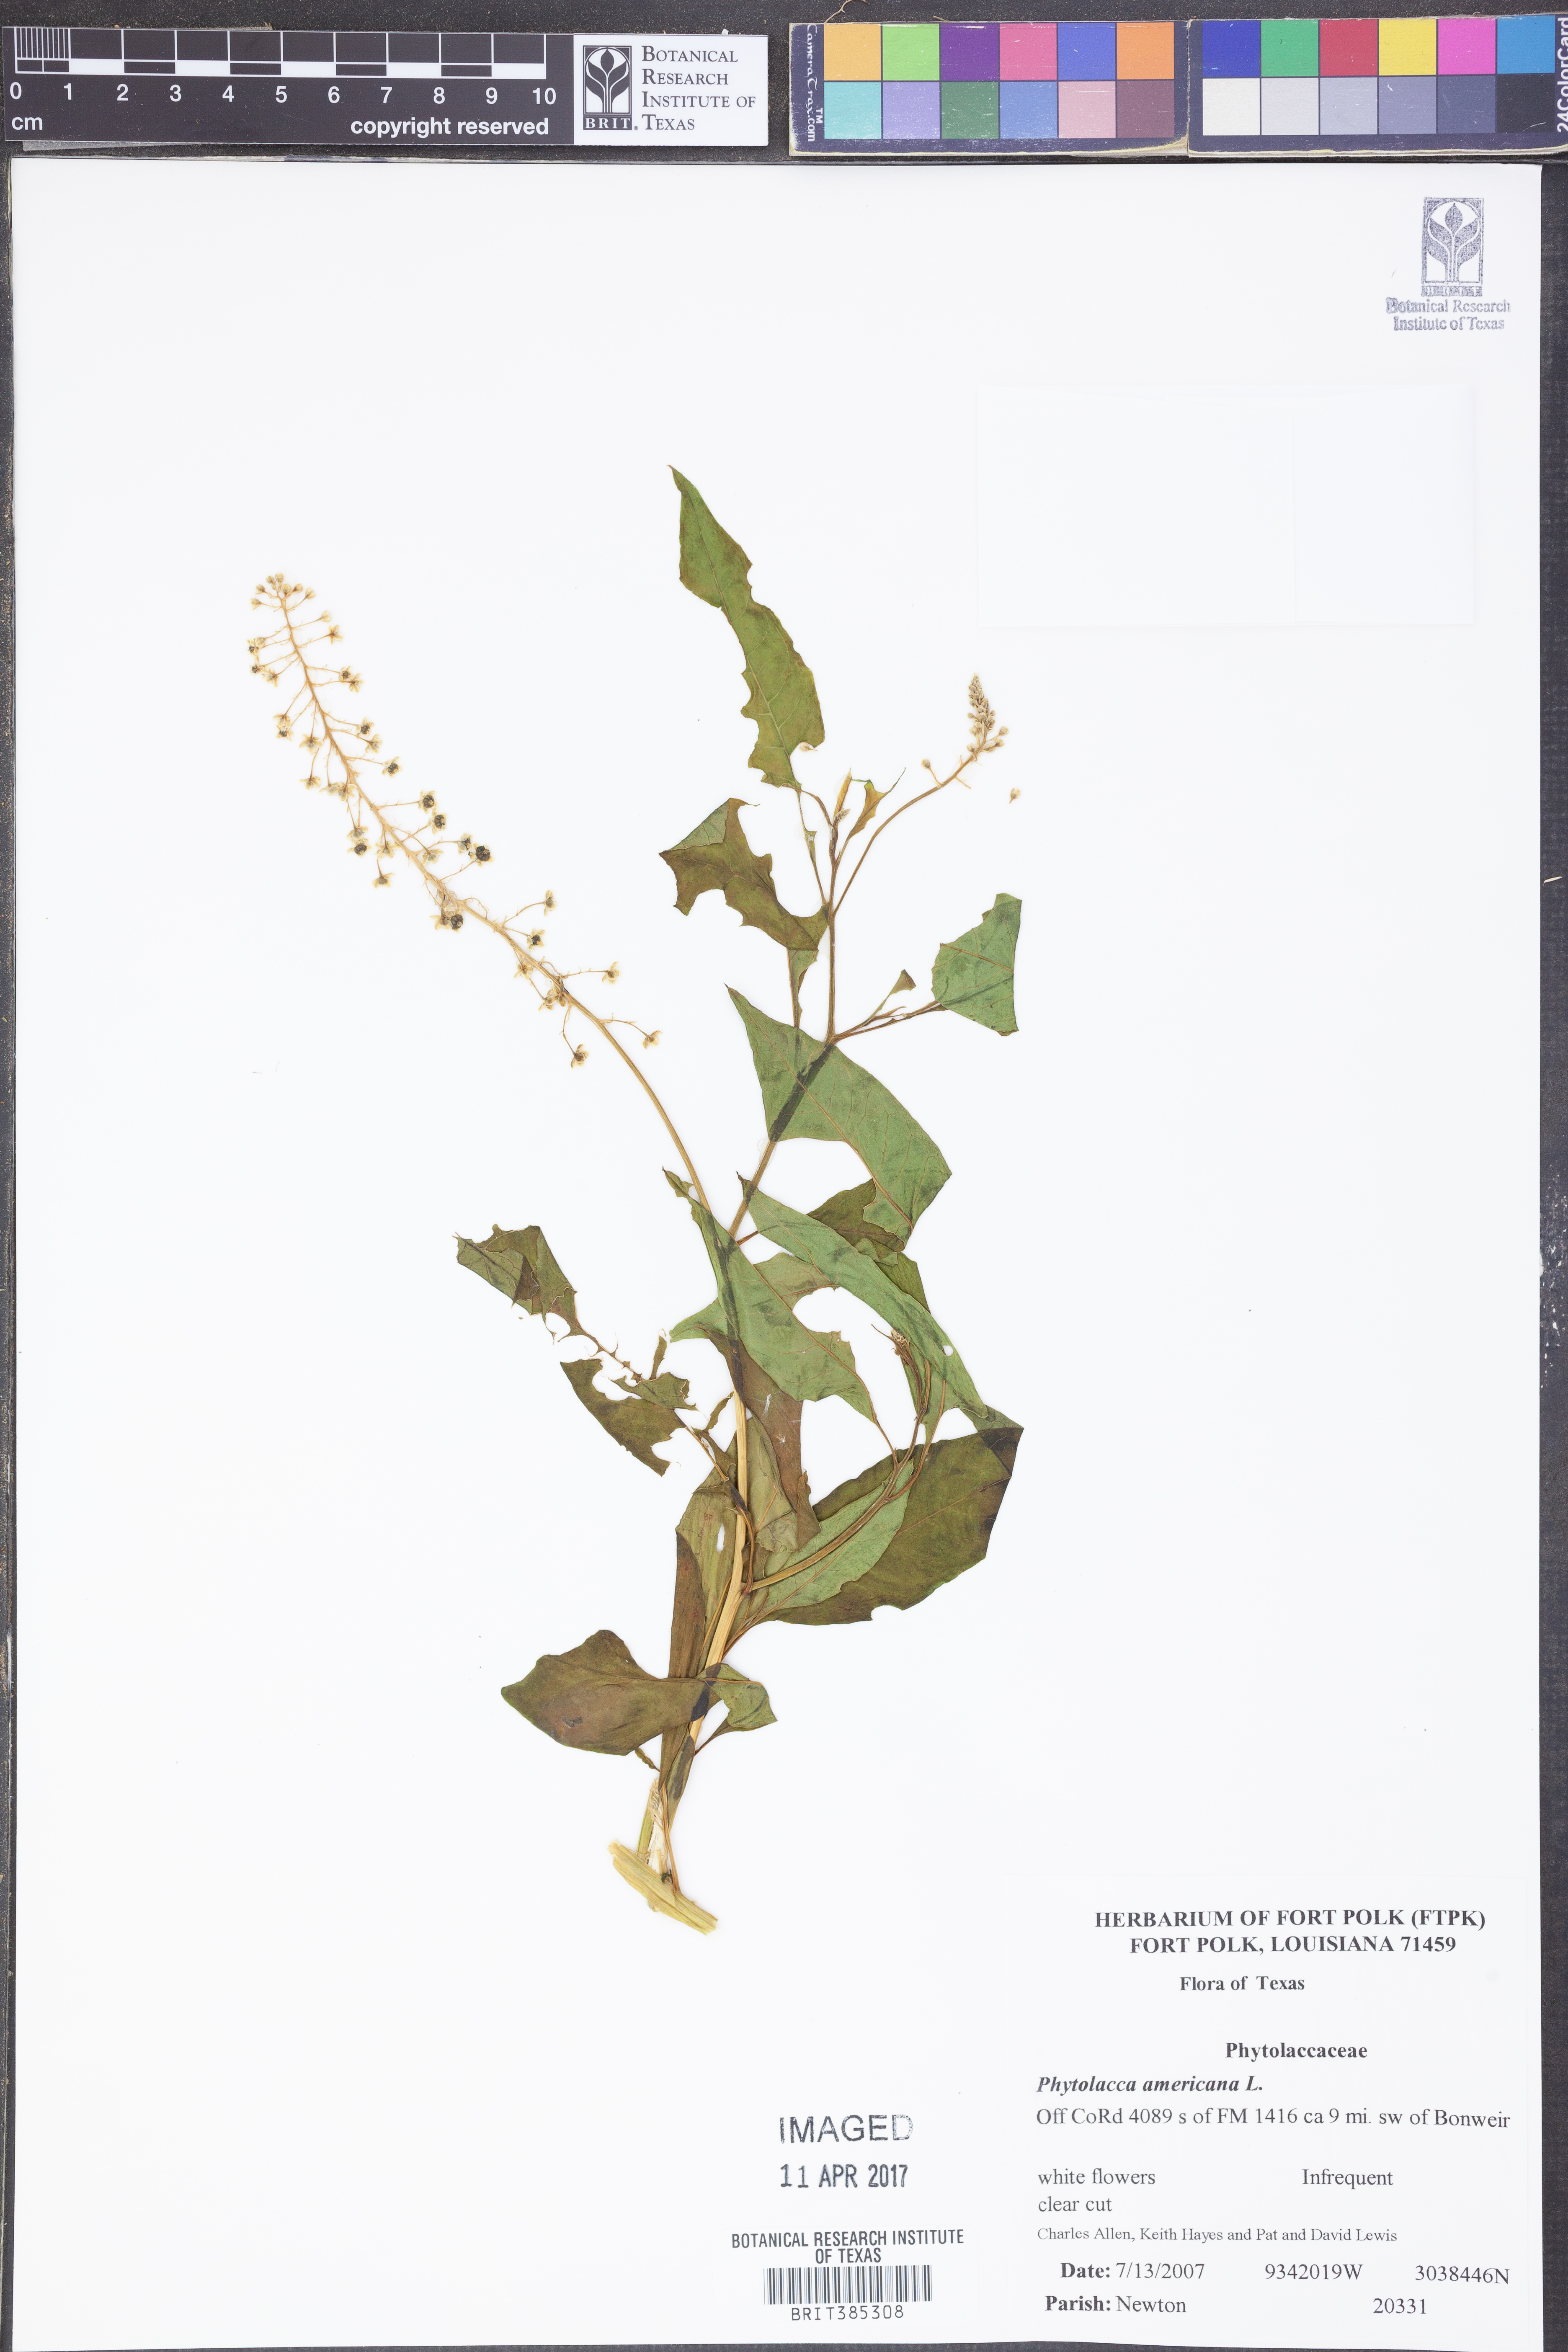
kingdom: Plantae
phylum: Tracheophyta
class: Magnoliopsida
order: Caryophyllales
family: Phytolaccaceae
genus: Phytolacca
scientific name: Phytolacca americana
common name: American pokeweed
